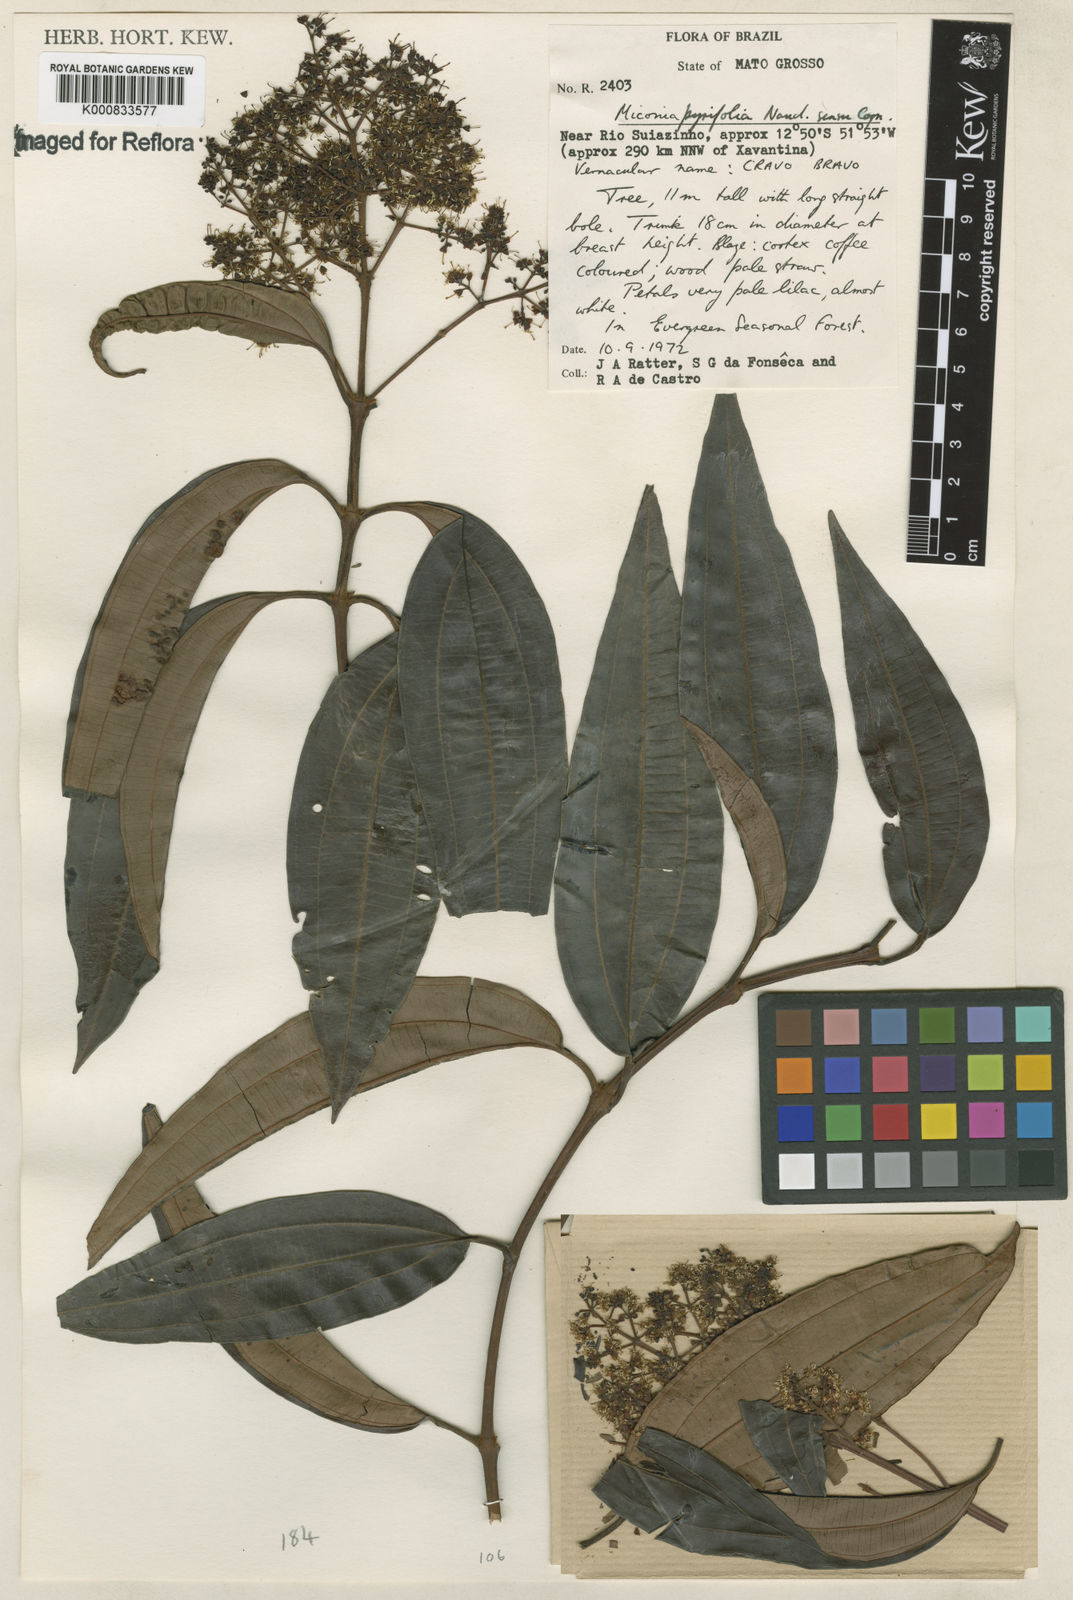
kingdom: Plantae
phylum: Tracheophyta
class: Magnoliopsida
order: Myrtales
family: Melastomataceae
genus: Miconia
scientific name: Miconia pyrifolia
